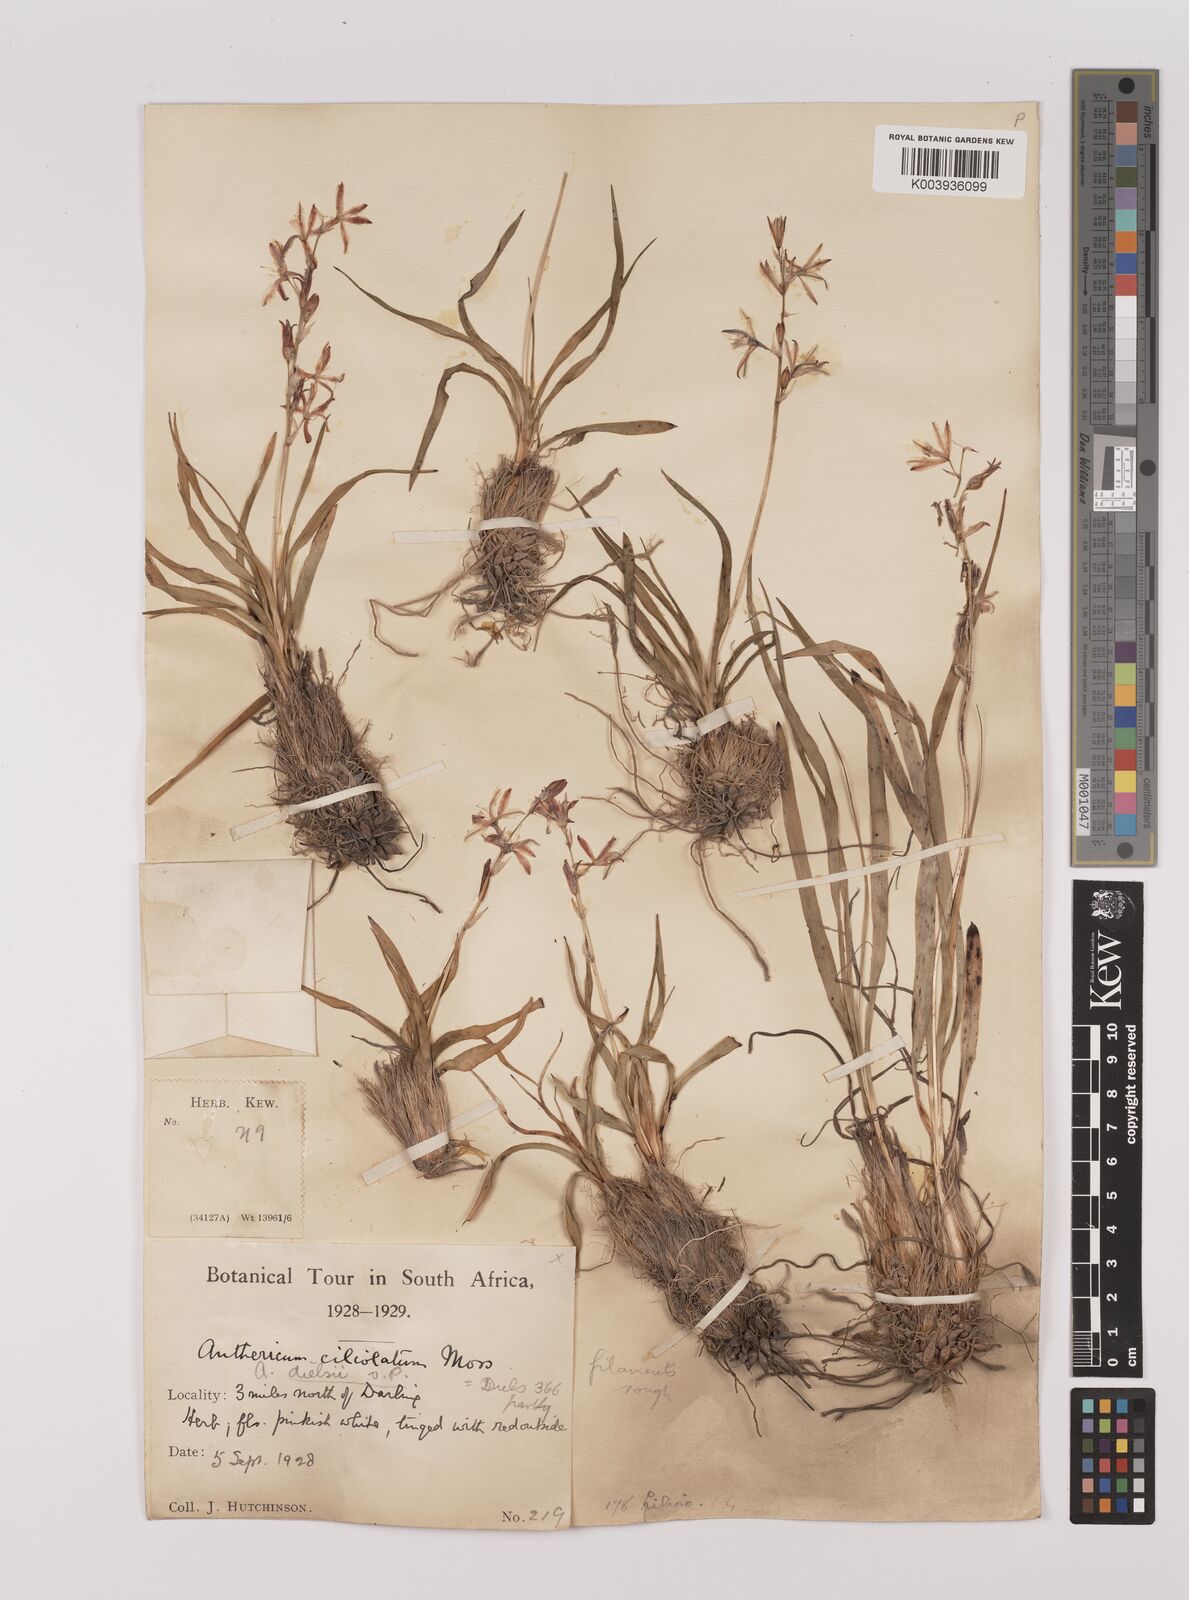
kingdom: Plantae
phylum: Tracheophyta
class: Liliopsida
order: Asparagales
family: Asparagaceae
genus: Chlorophytum
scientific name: Chlorophytum triflorum
